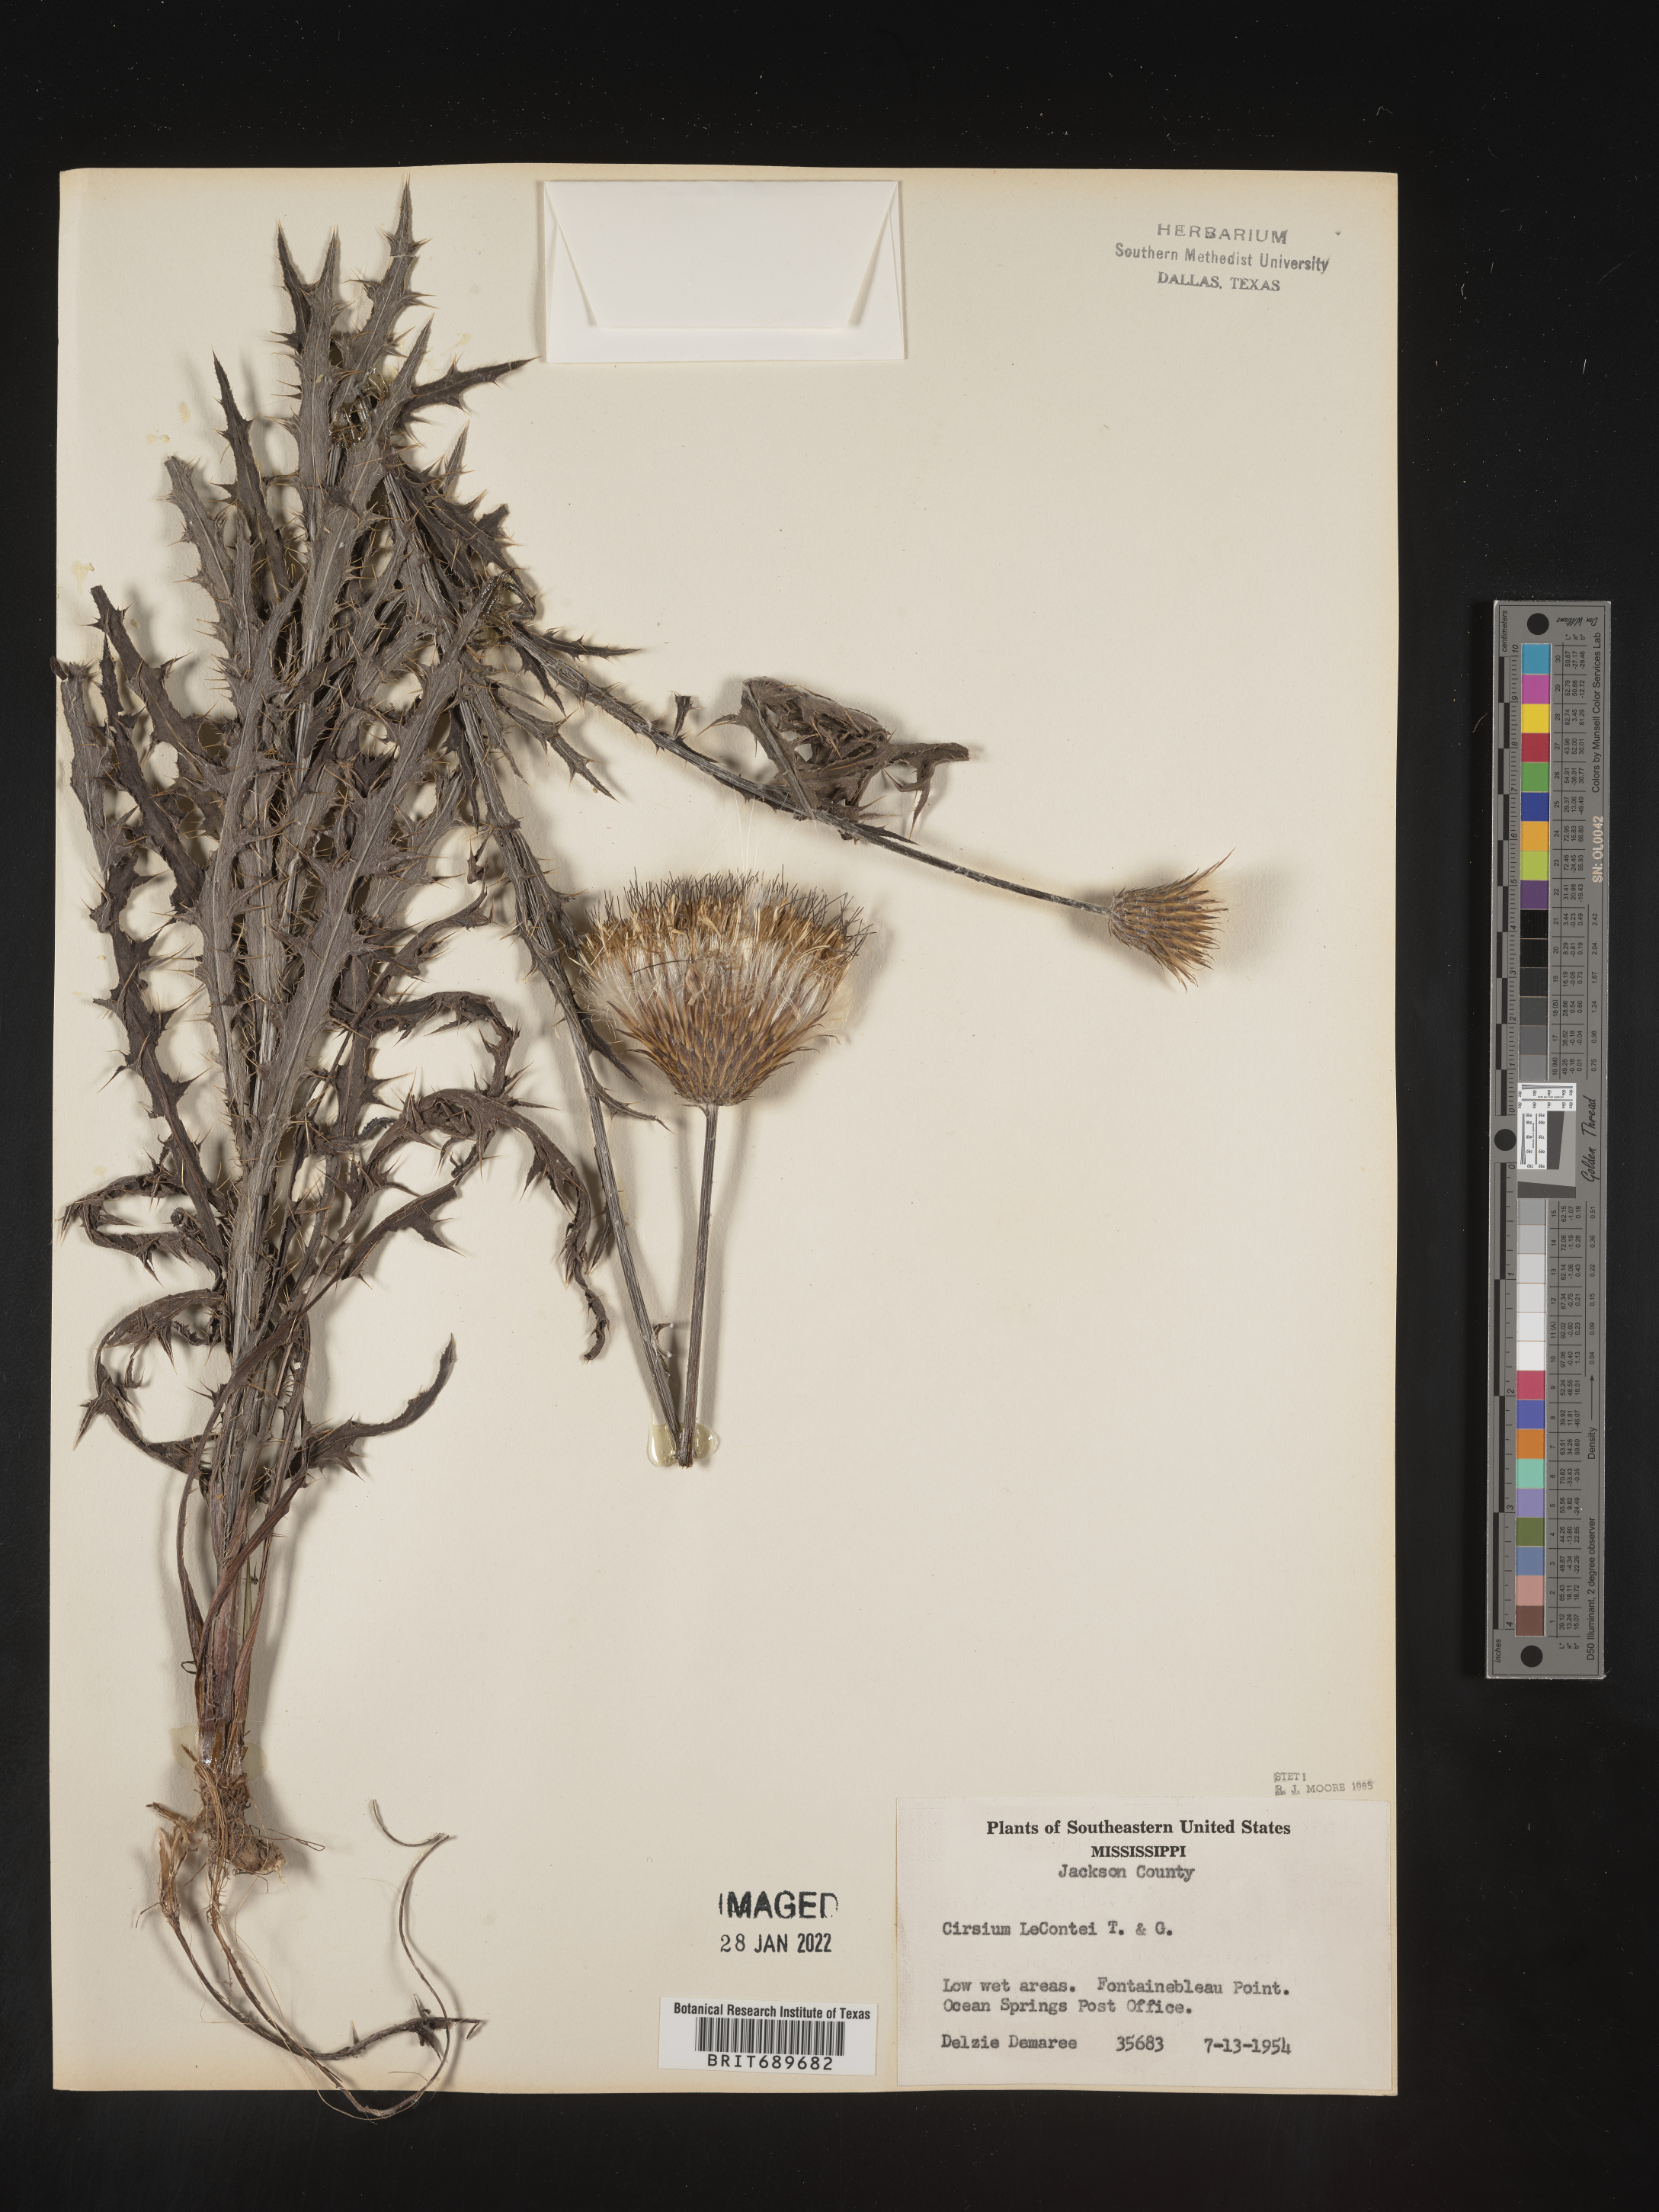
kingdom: Plantae
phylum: Tracheophyta
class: Magnoliopsida
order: Asterales
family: Asteraceae
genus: Cirsium
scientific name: Cirsium lecontei
